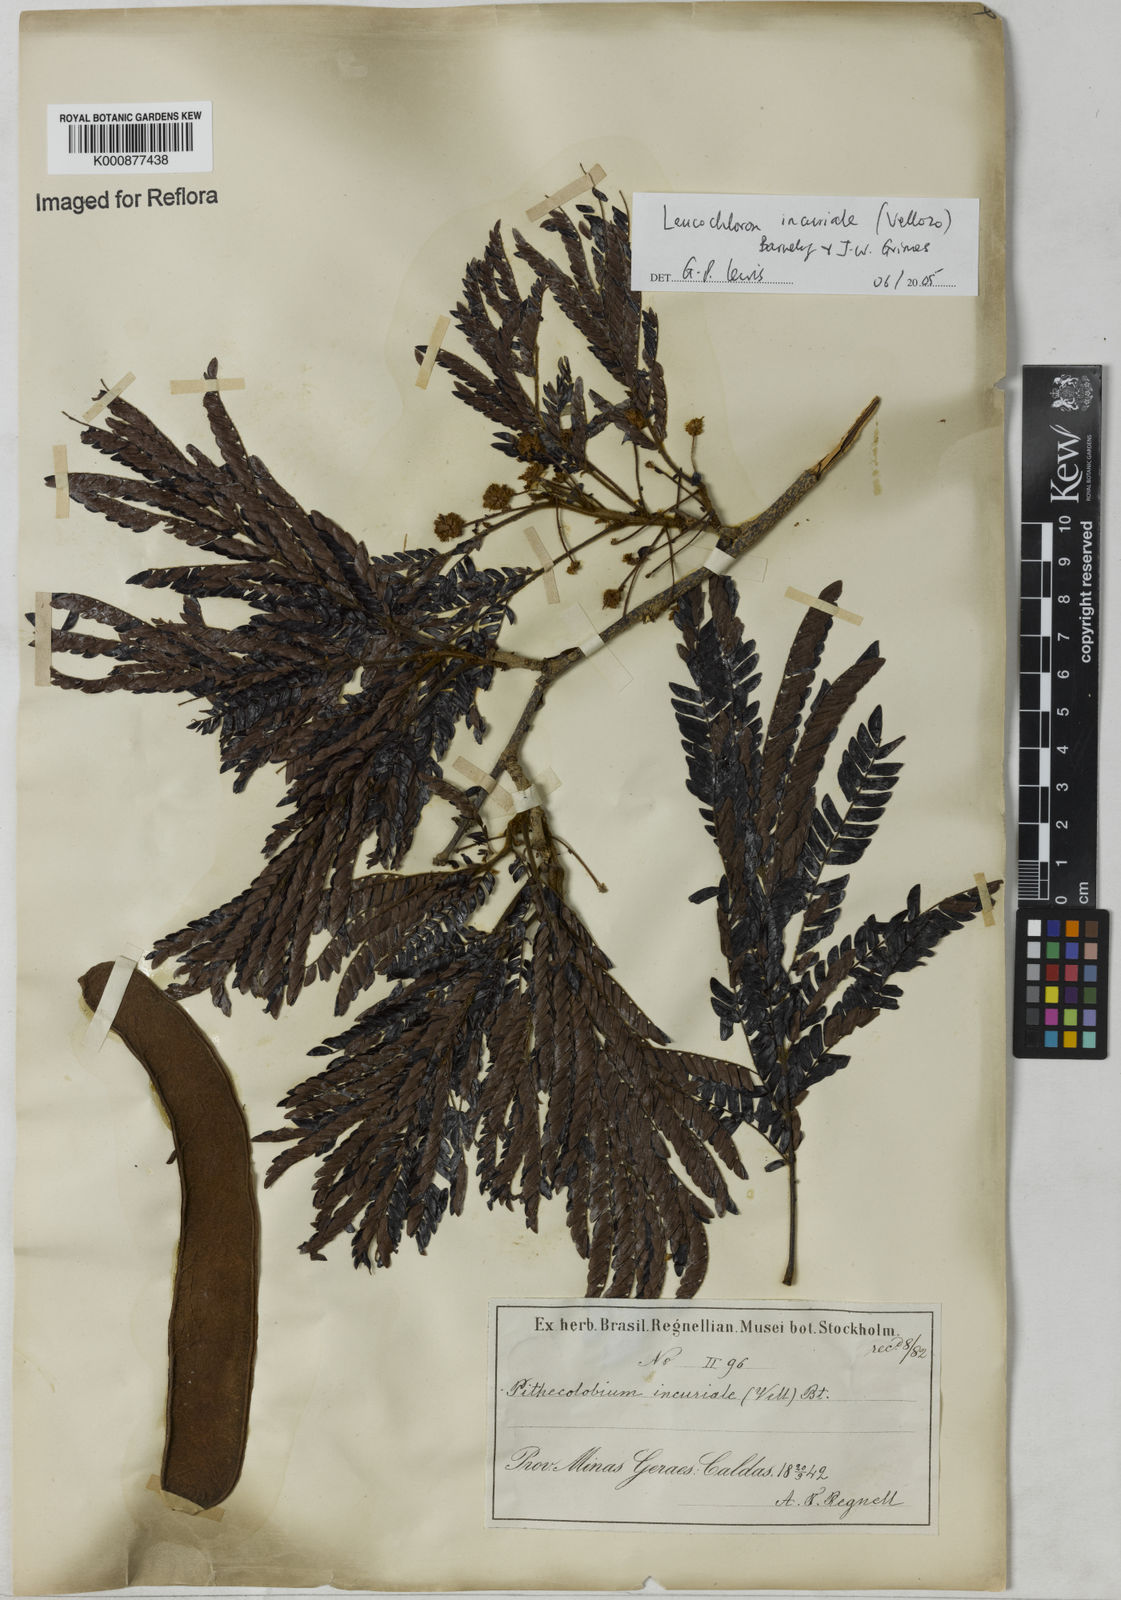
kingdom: Plantae
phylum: Tracheophyta
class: Magnoliopsida
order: Fabales
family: Fabaceae
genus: Leucochloron
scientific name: Leucochloron incuriale
